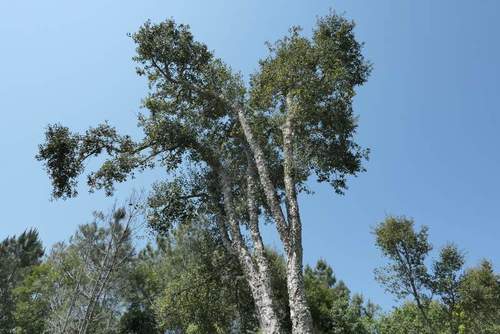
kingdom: Plantae
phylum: Tracheophyta
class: Magnoliopsida
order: Fagales
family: Fagaceae
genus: Quercus
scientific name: Quercus suber
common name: Cork oak
